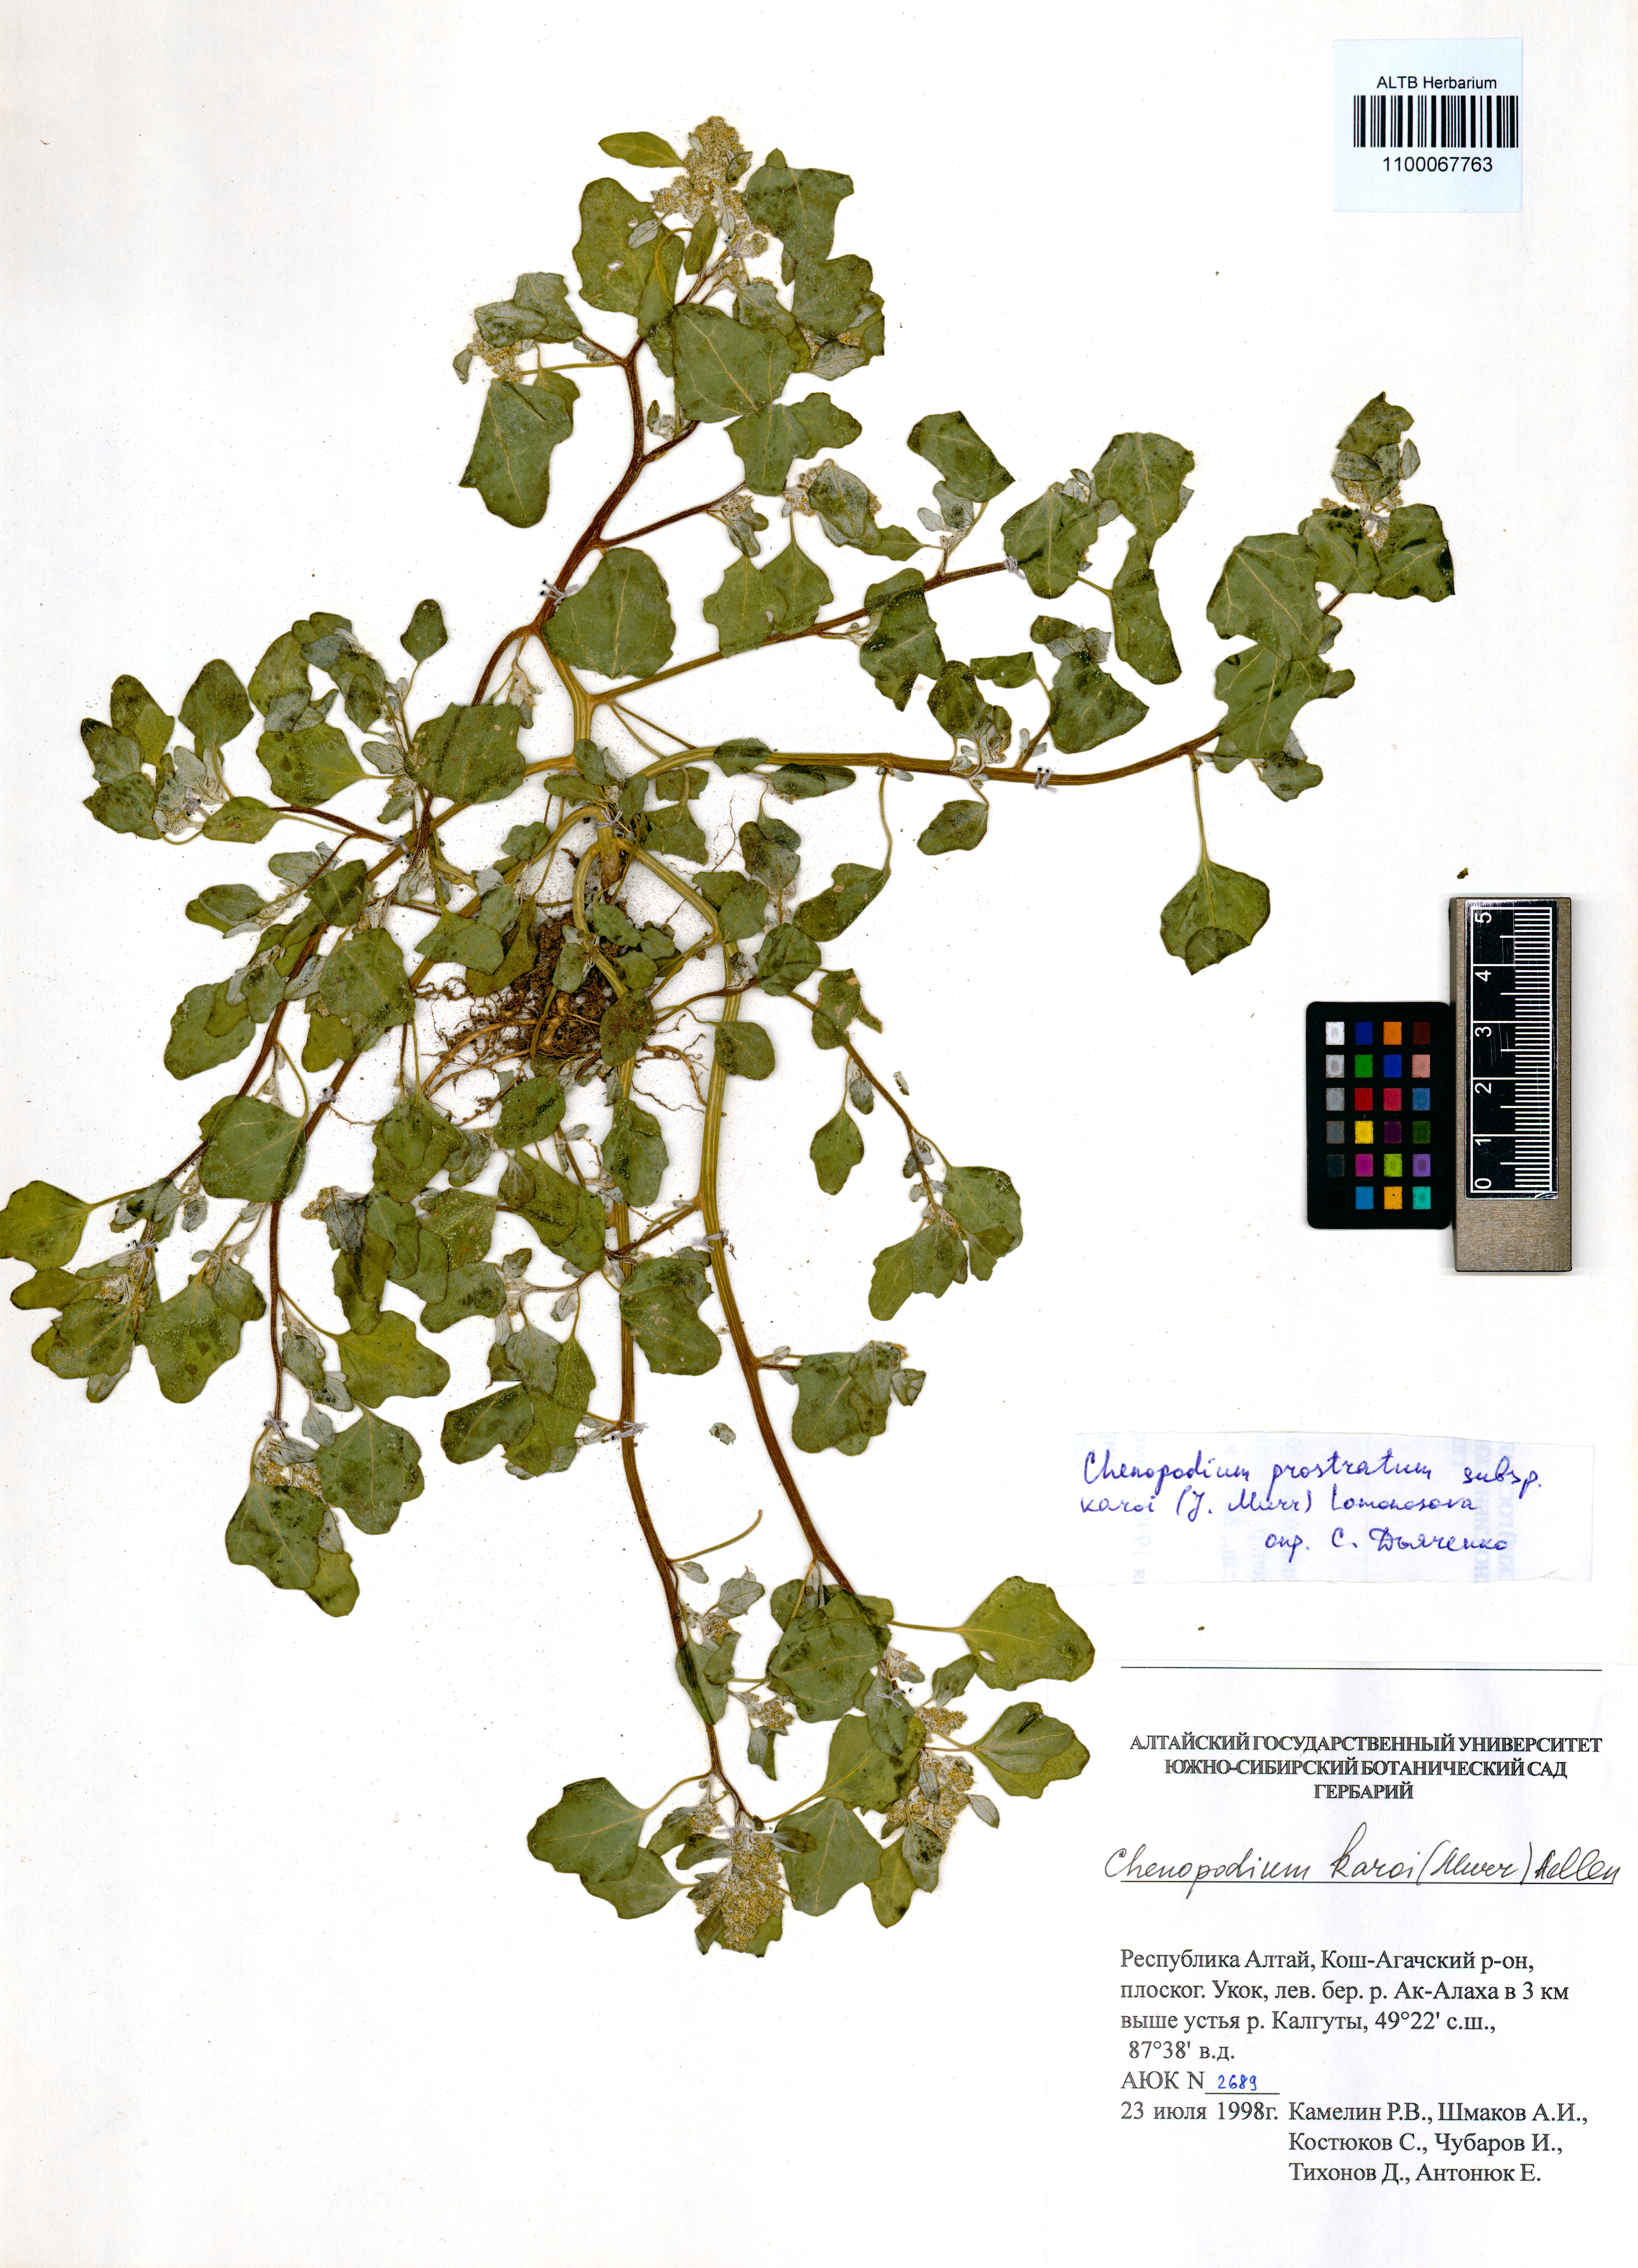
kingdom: Plantae
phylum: Tracheophyta
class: Magnoliopsida
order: Caryophyllales
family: Amaranthaceae
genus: Chenopodium
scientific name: Chenopodium karoi
